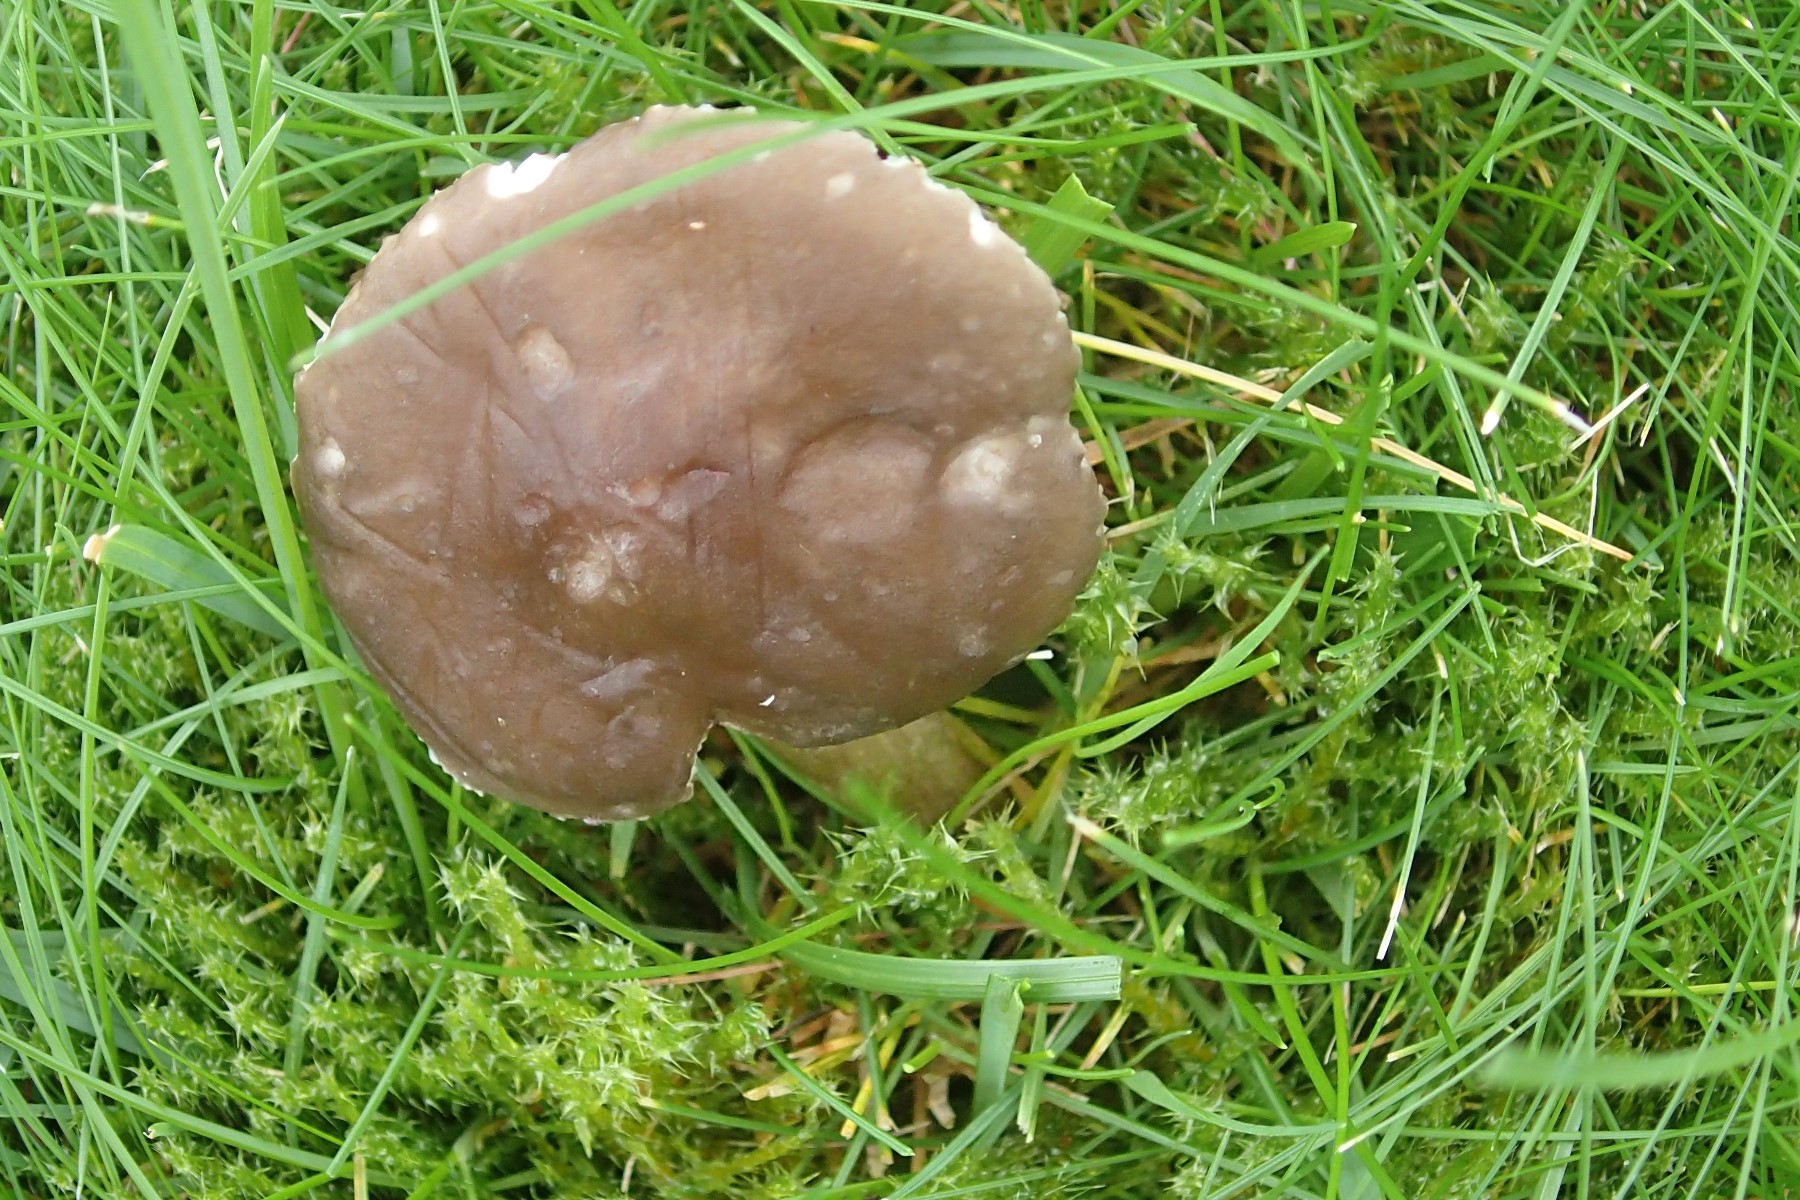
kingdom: Fungi
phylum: Basidiomycota
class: Agaricomycetes
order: Agaricales
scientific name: Agaricales
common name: champignonordenen
